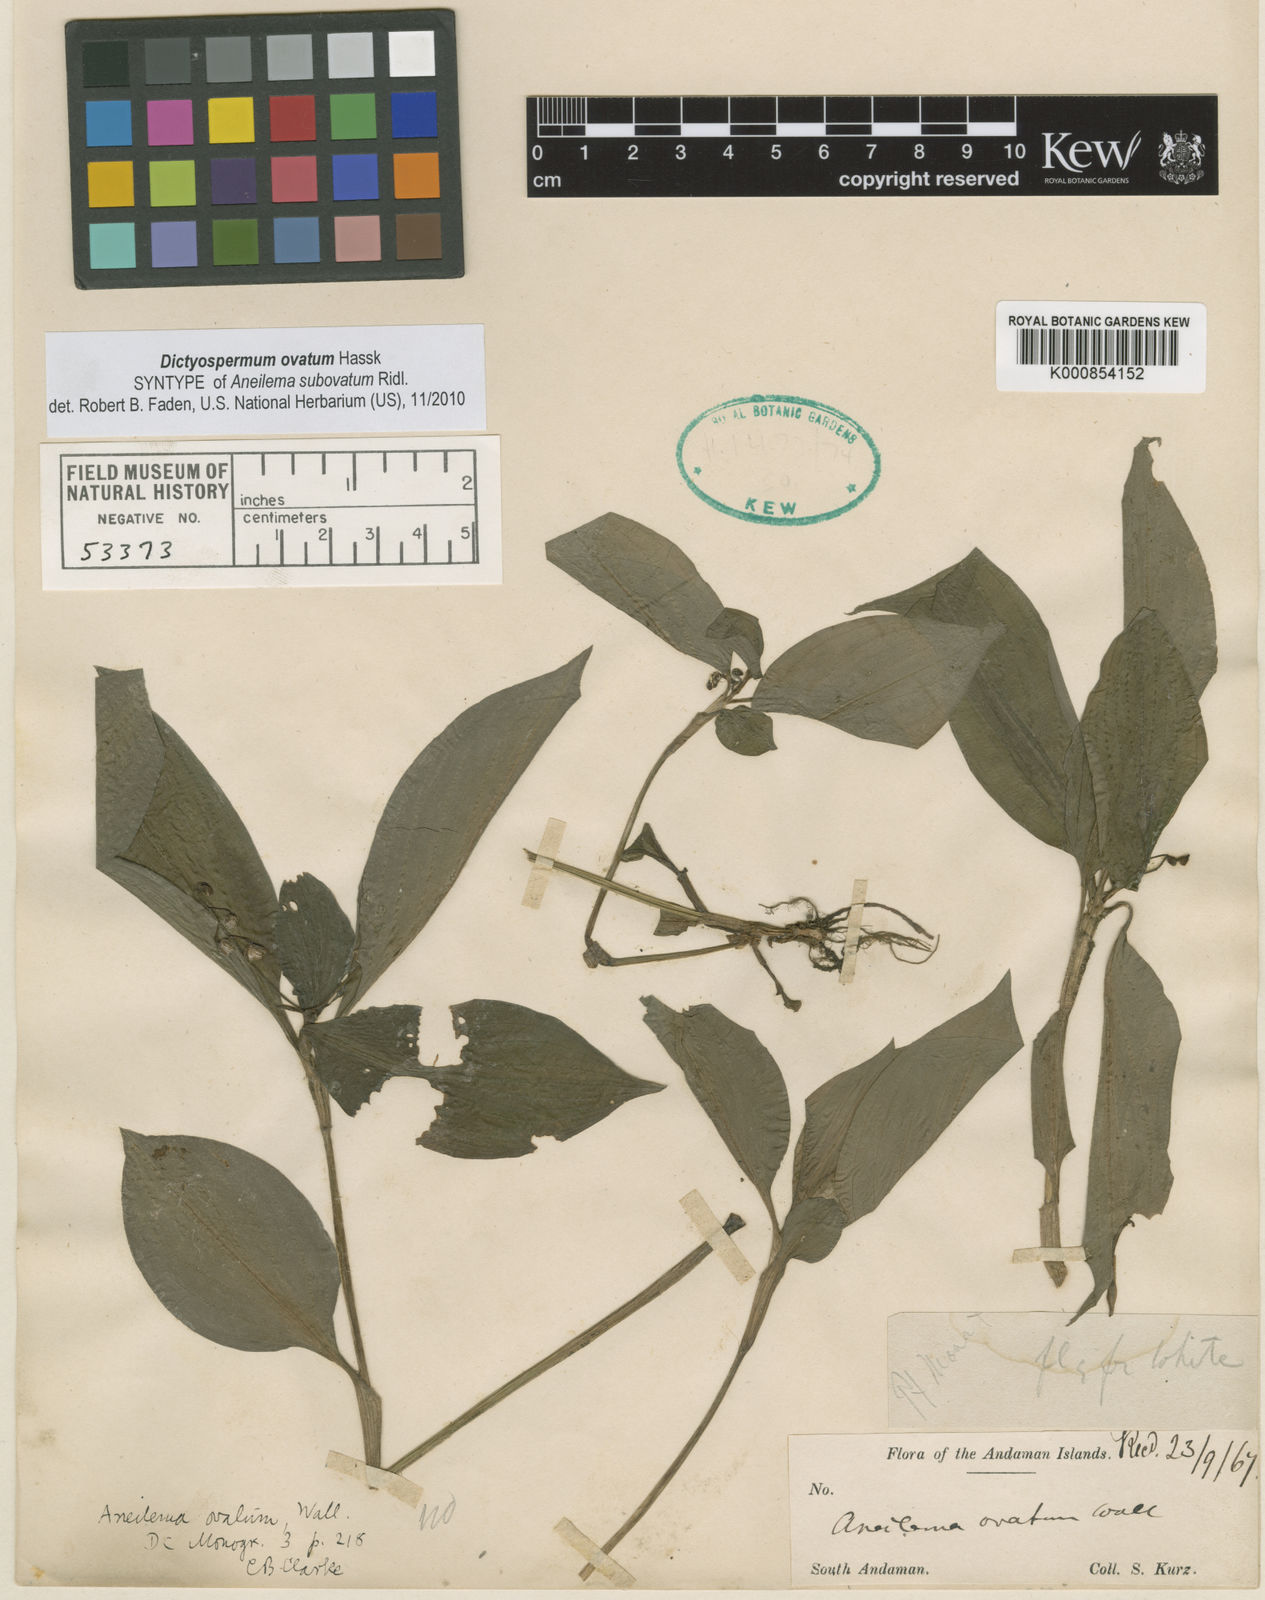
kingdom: Plantae
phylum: Tracheophyta
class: Liliopsida
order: Commelinales
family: Commelinaceae
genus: Dictyospermum
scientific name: Dictyospermum ovatum
